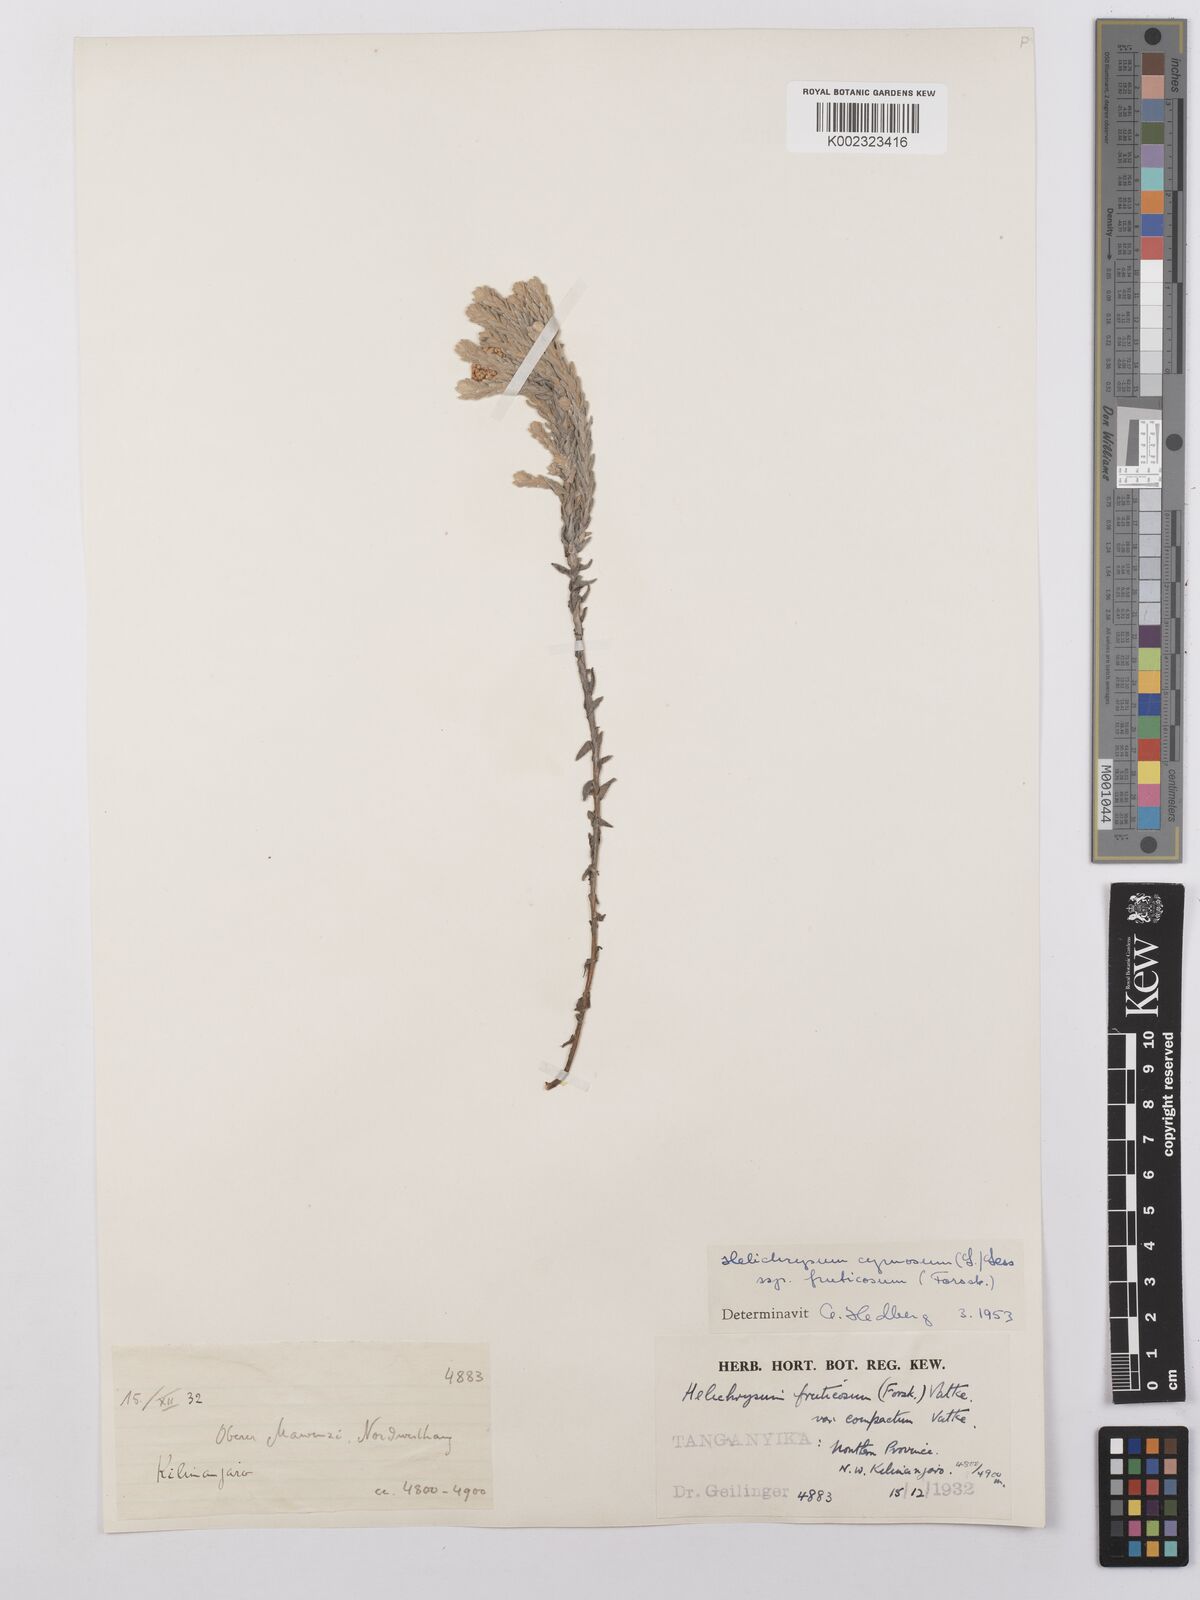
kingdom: Plantae
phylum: Tracheophyta
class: Magnoliopsida
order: Asterales
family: Asteraceae
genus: Helichrysum
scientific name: Helichrysum forskahlii
